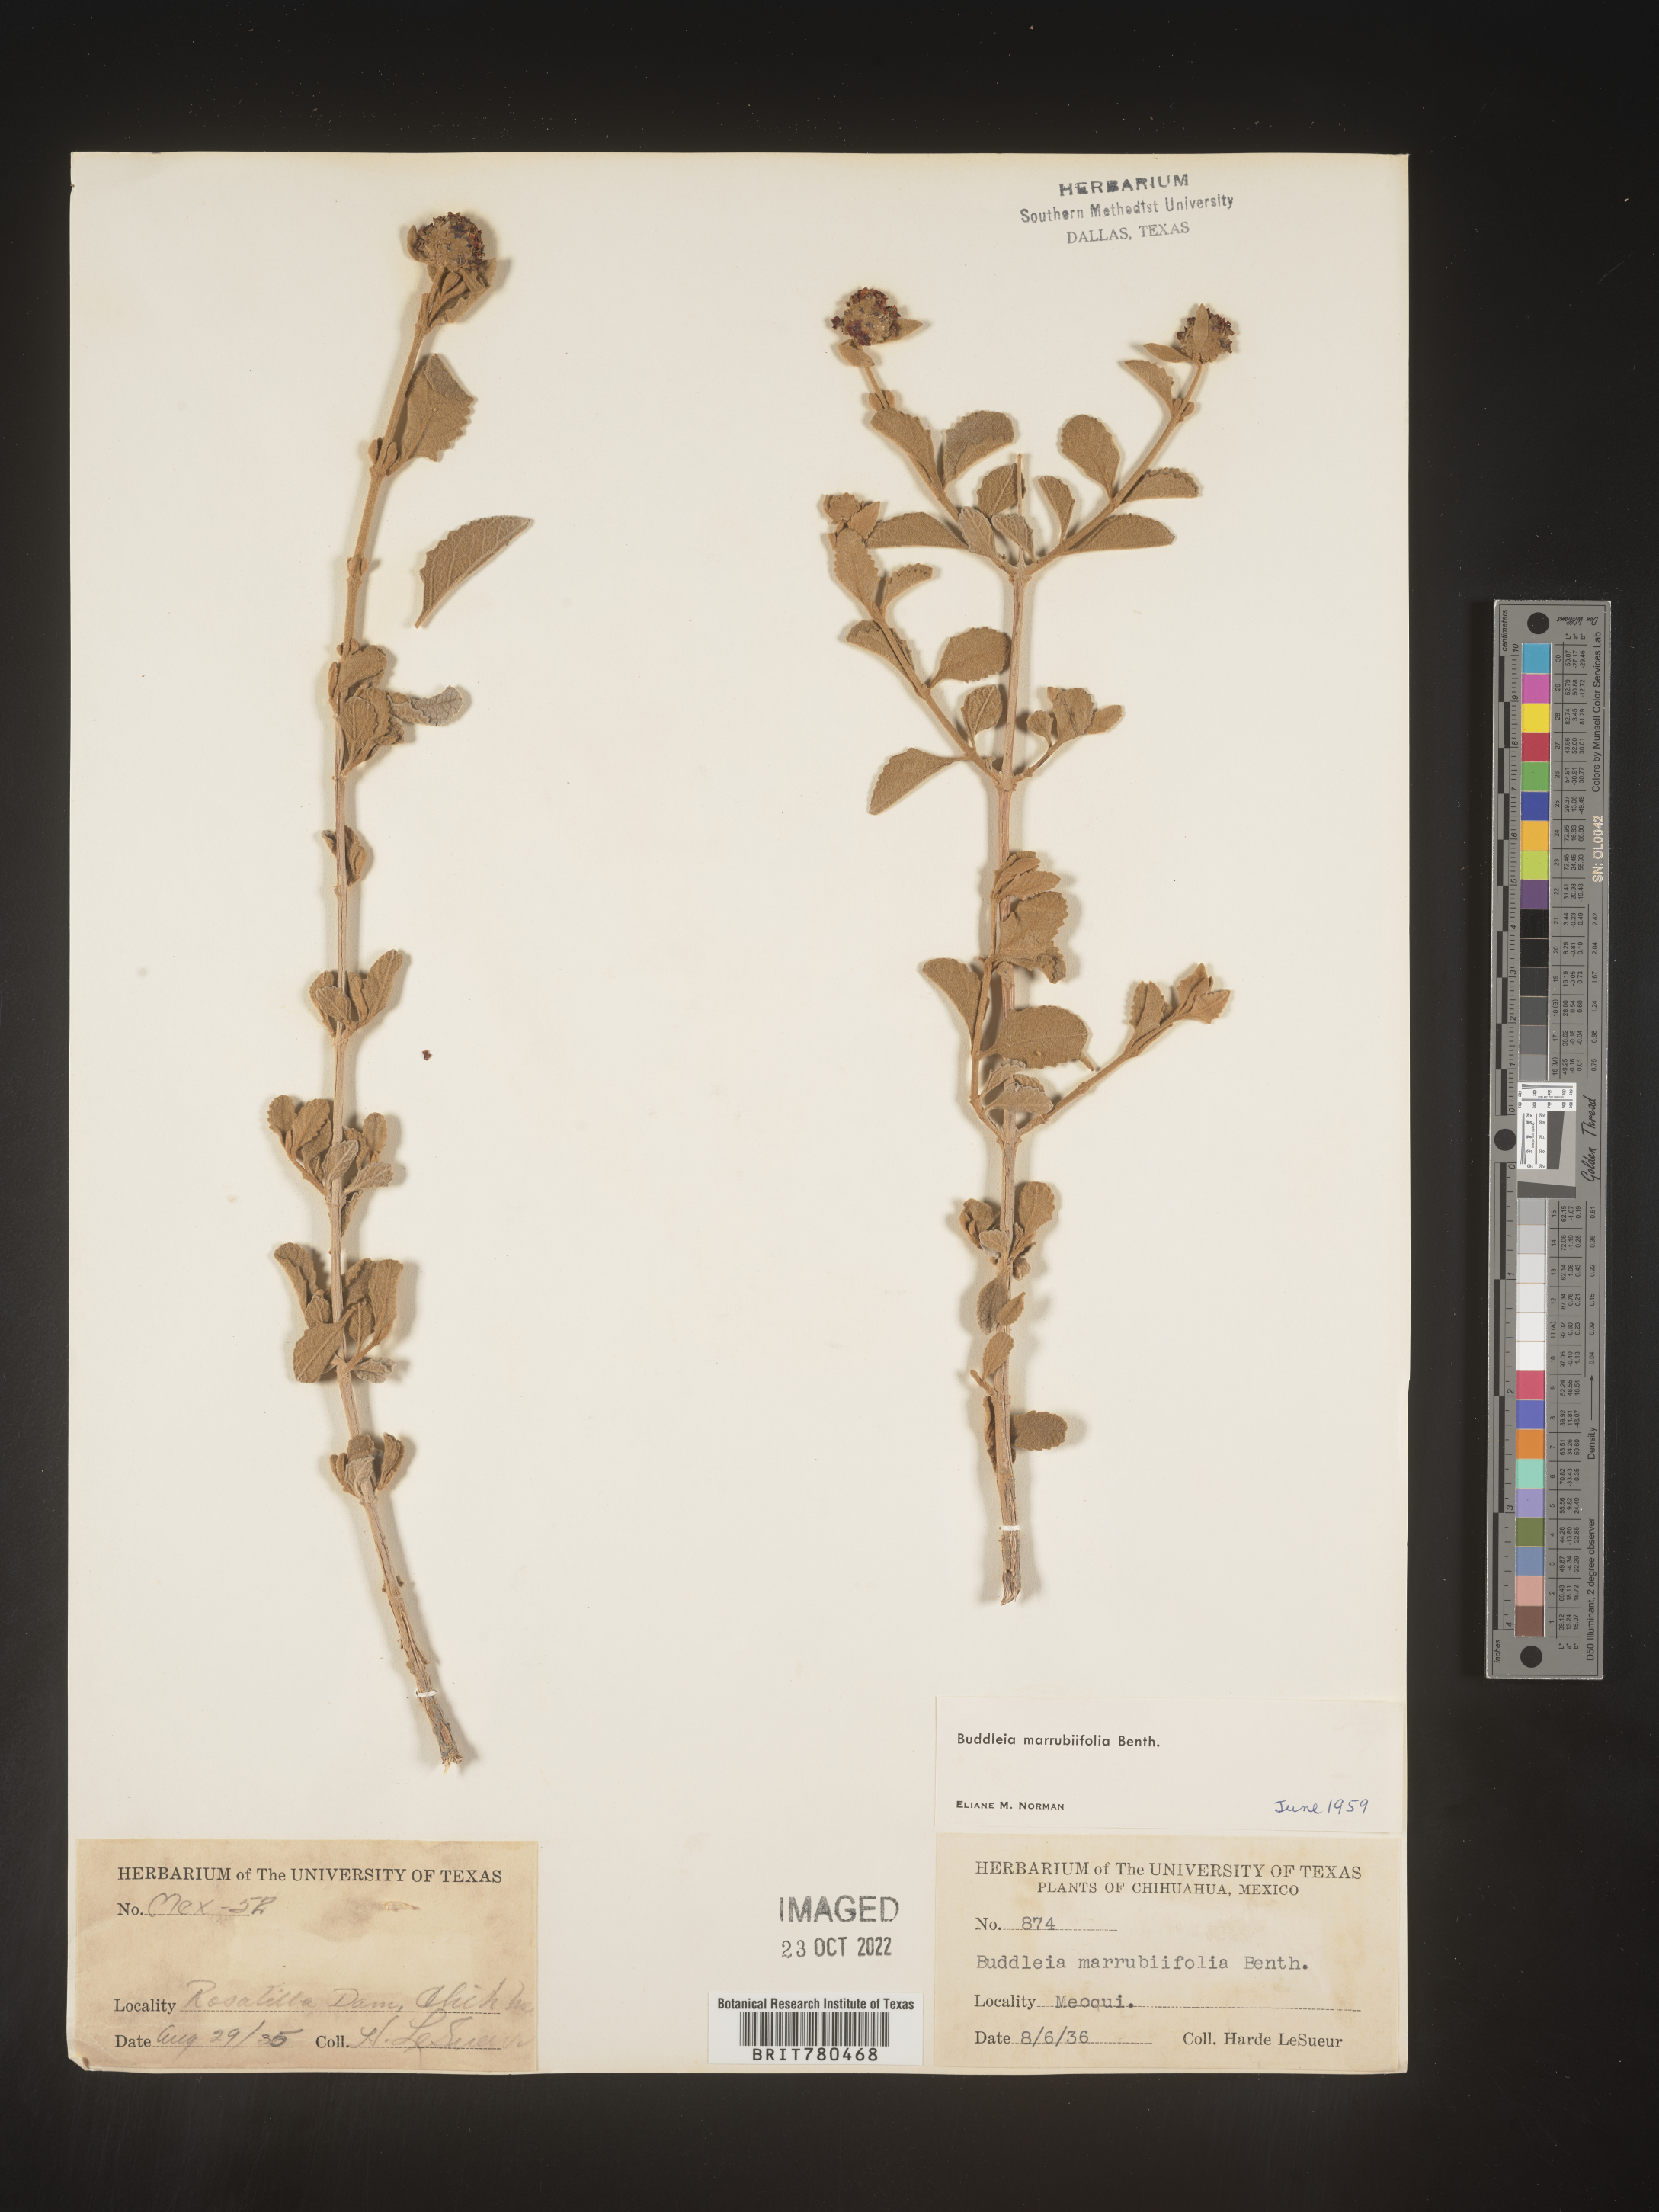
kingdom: Plantae
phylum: Tracheophyta
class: Magnoliopsida
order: Lamiales
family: Scrophulariaceae
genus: Buddleja
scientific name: Buddleja
